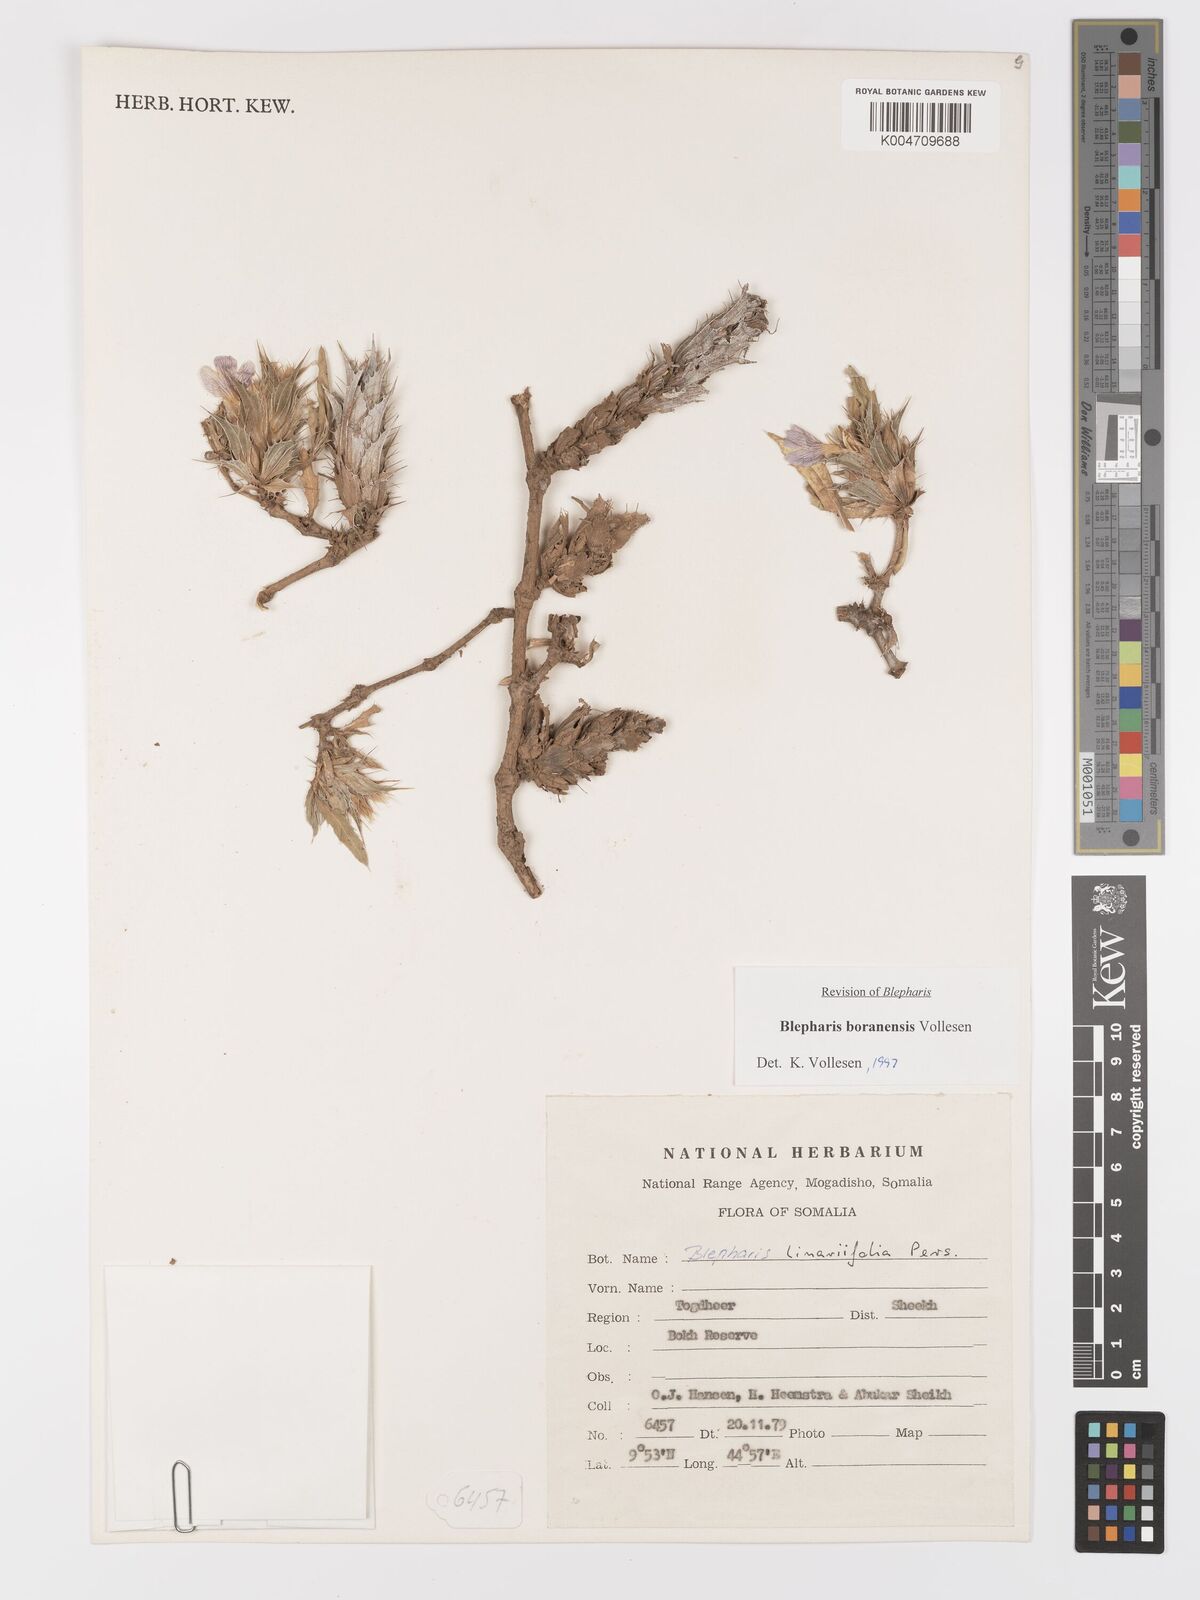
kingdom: Plantae
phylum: Tracheophyta
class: Magnoliopsida
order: Lamiales
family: Acanthaceae
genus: Blepharis
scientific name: Blepharis boranensis
